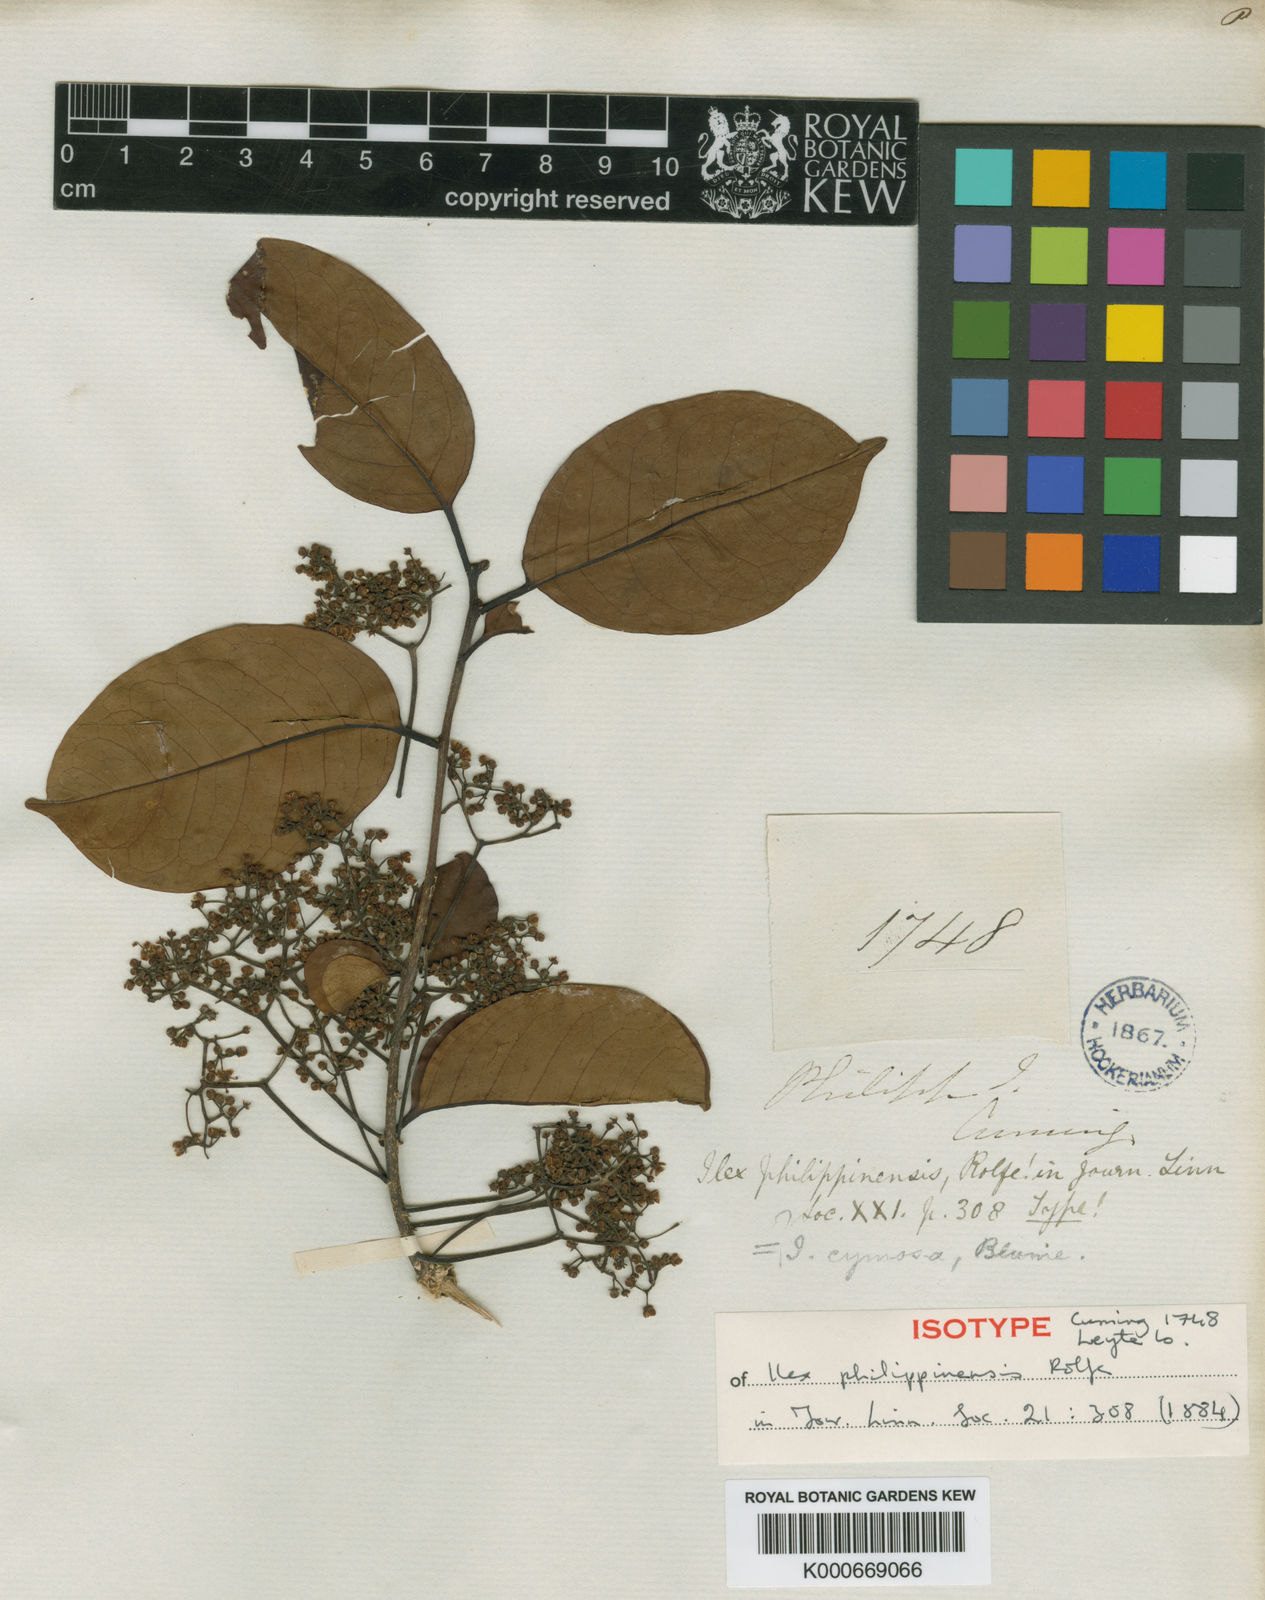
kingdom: Plantae
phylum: Tracheophyta
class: Magnoliopsida
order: Aquifoliales
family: Aquifoliaceae
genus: Ilex
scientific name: Ilex cymosa
